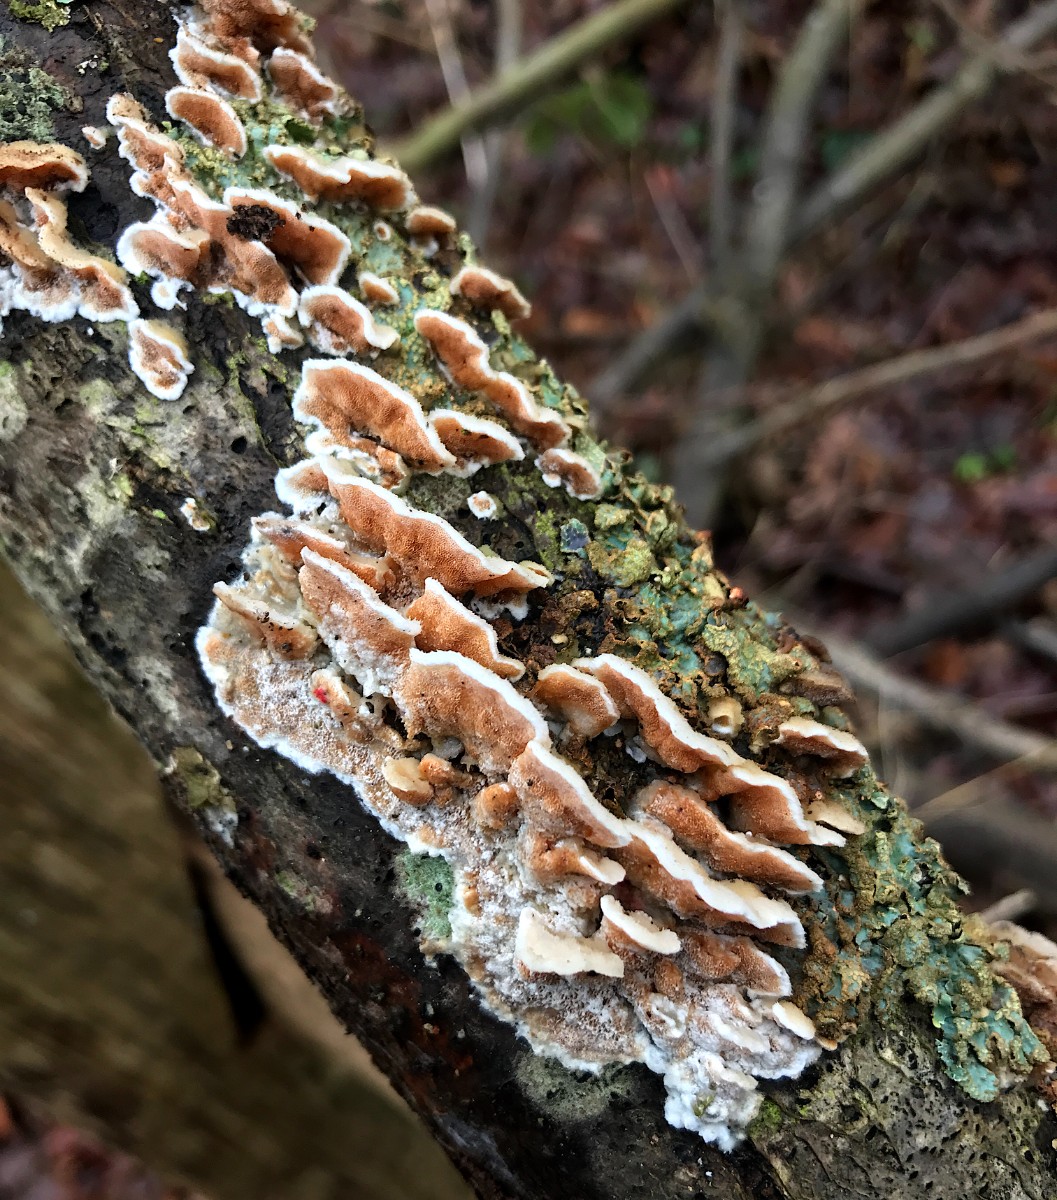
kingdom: Fungi
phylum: Basidiomycota
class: Agaricomycetes
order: Polyporales
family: Irpicaceae
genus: Vitreoporus
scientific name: Vitreoporus dichrous
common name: tofarvet foldporesvamp
